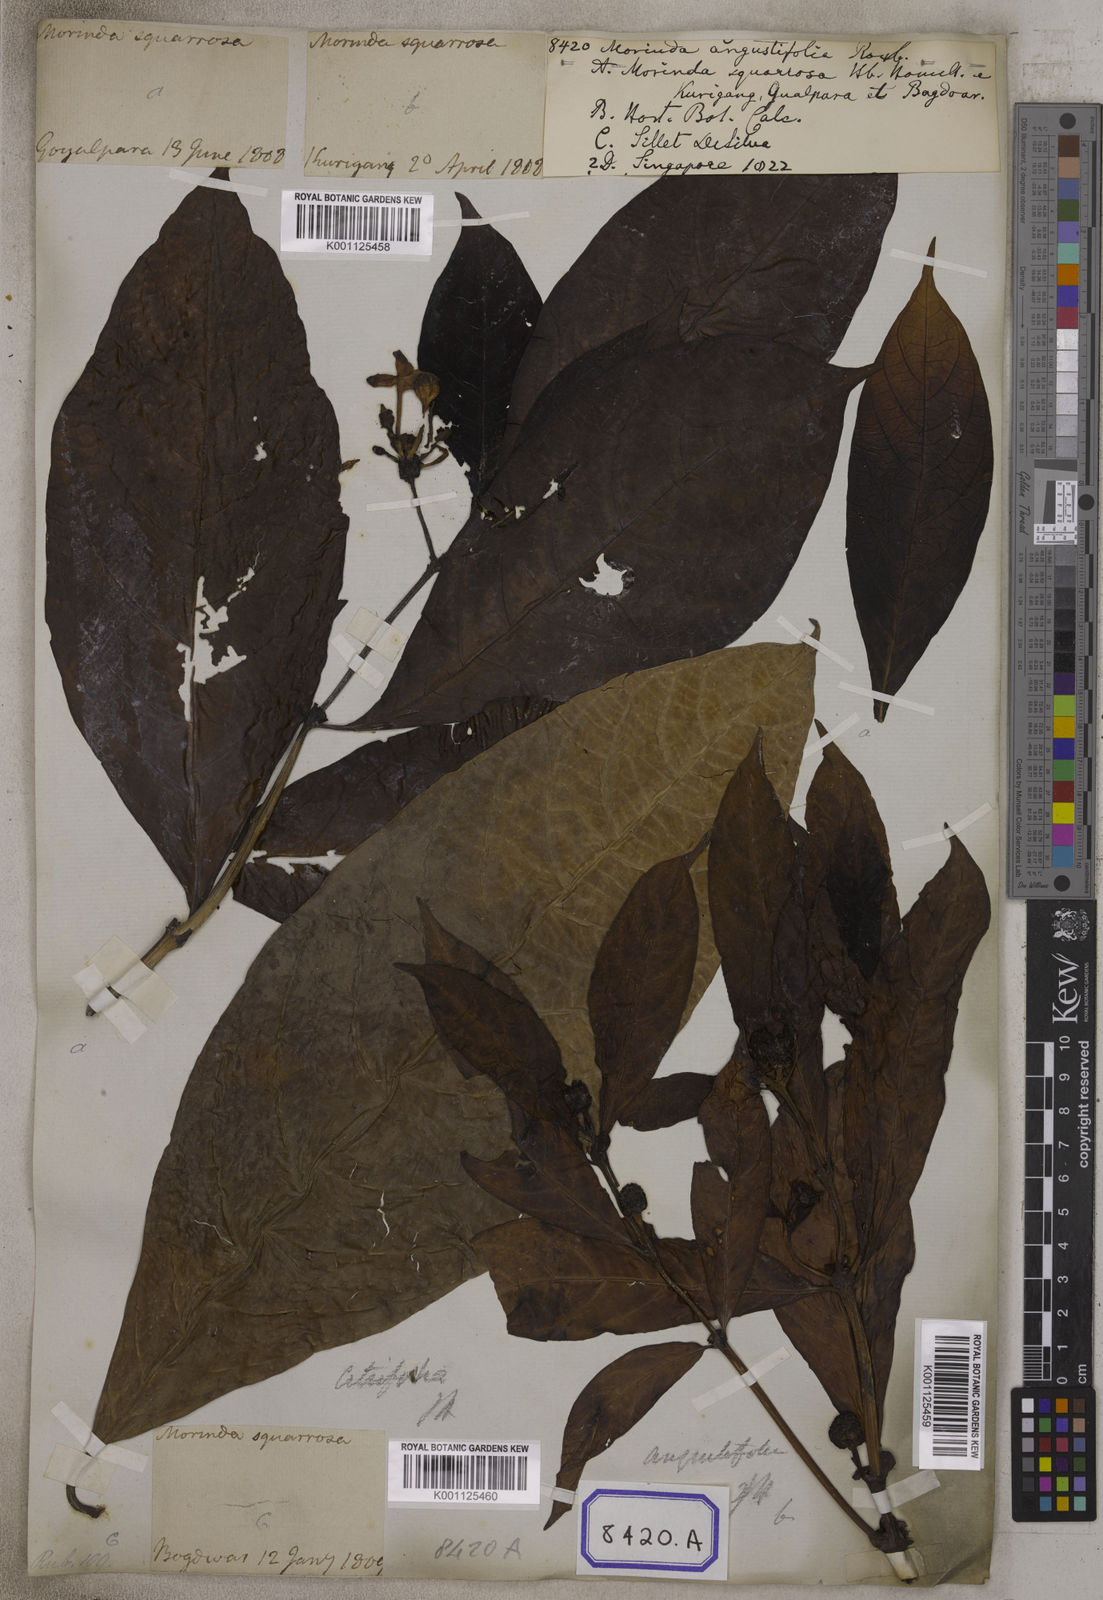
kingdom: Plantae
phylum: Tracheophyta
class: Magnoliopsida
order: Gentianales
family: Rubiaceae
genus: Morinda
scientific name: Morinda angustifolia
